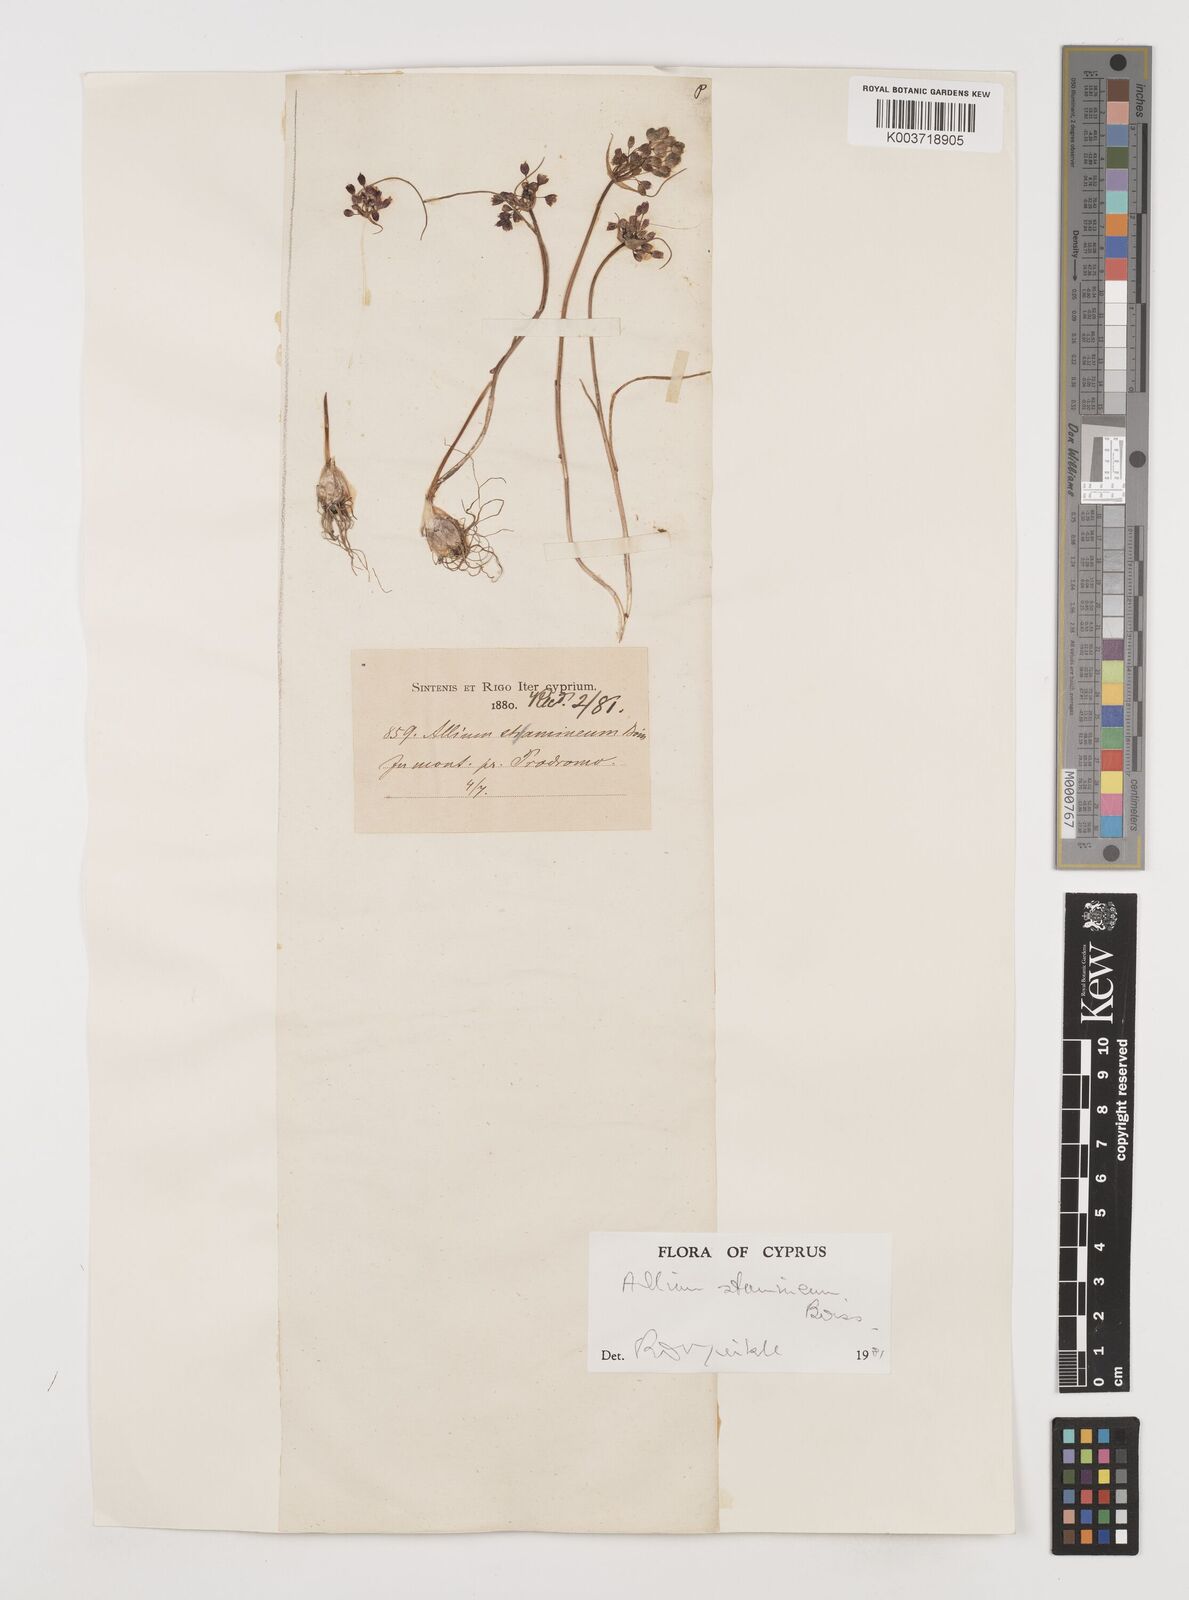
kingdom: Plantae
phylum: Tracheophyta
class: Liliopsida
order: Asparagales
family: Amaryllidaceae
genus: Allium
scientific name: Allium stamineum
